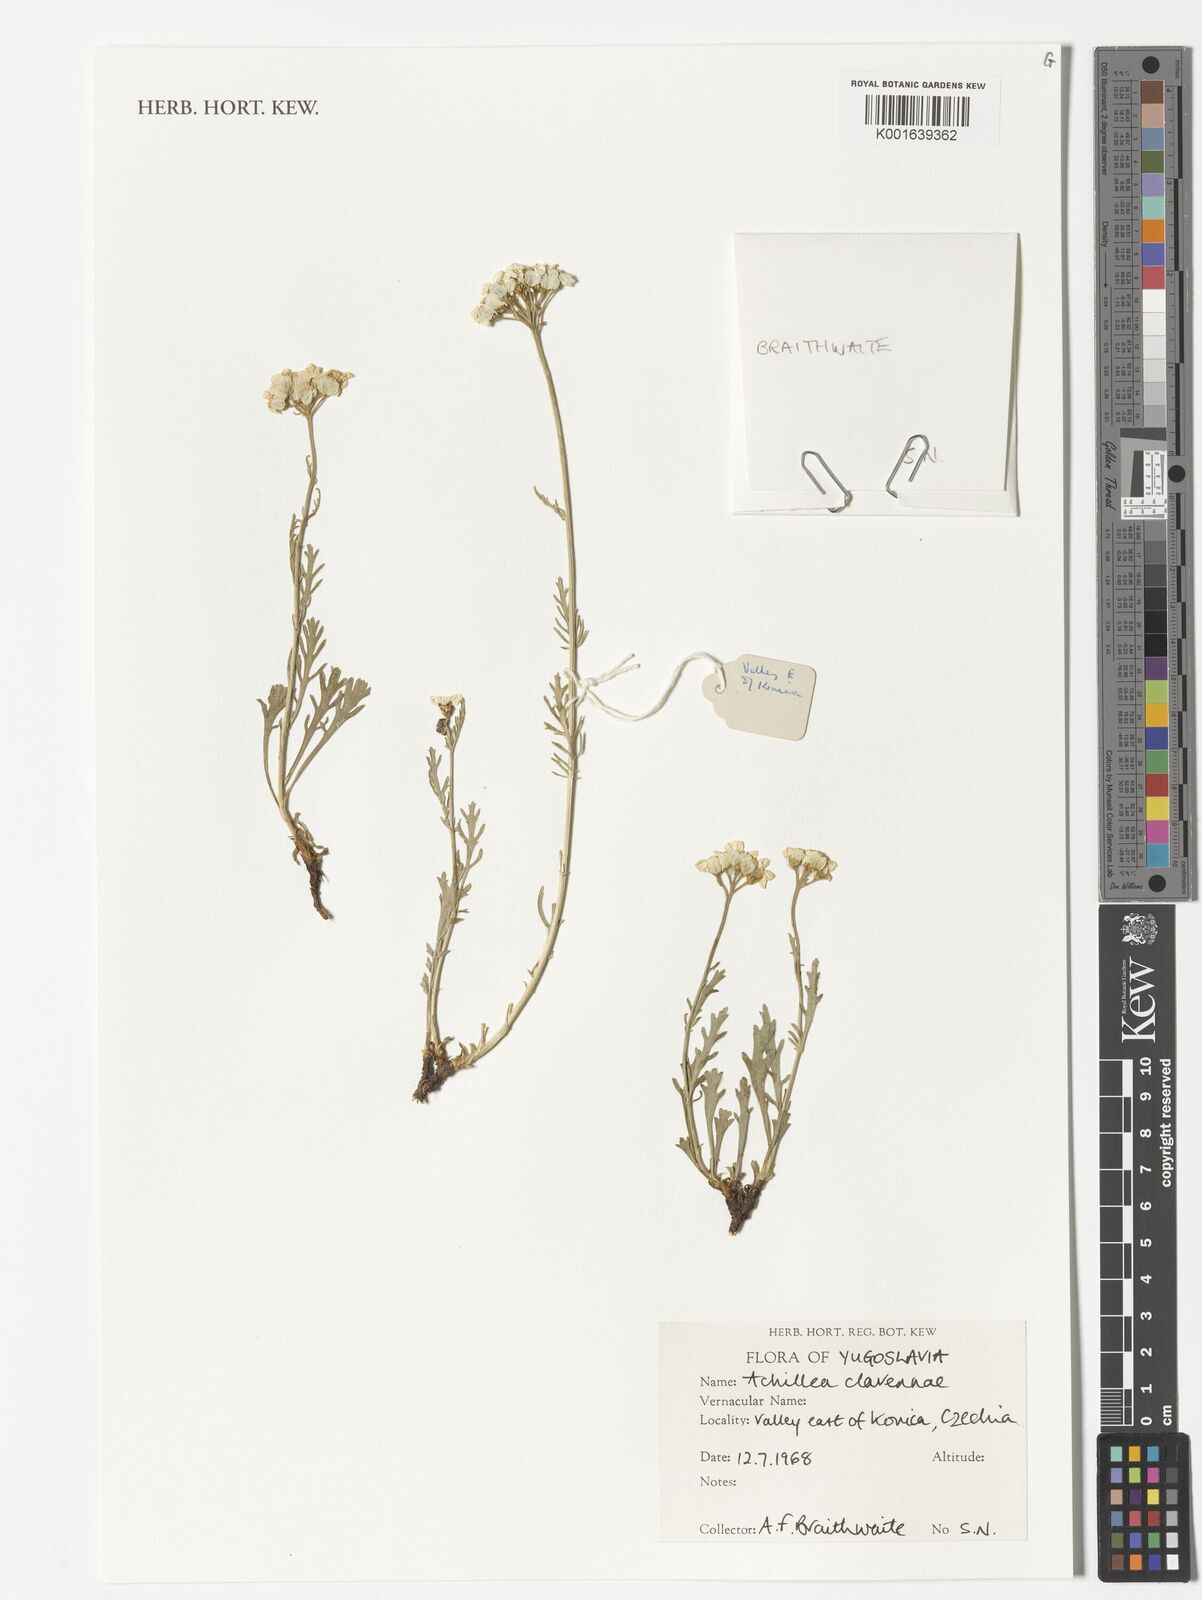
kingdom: Plantae
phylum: Tracheophyta
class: Magnoliopsida
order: Asterales
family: Asteraceae
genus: Achillea
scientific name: Achillea clavennae
